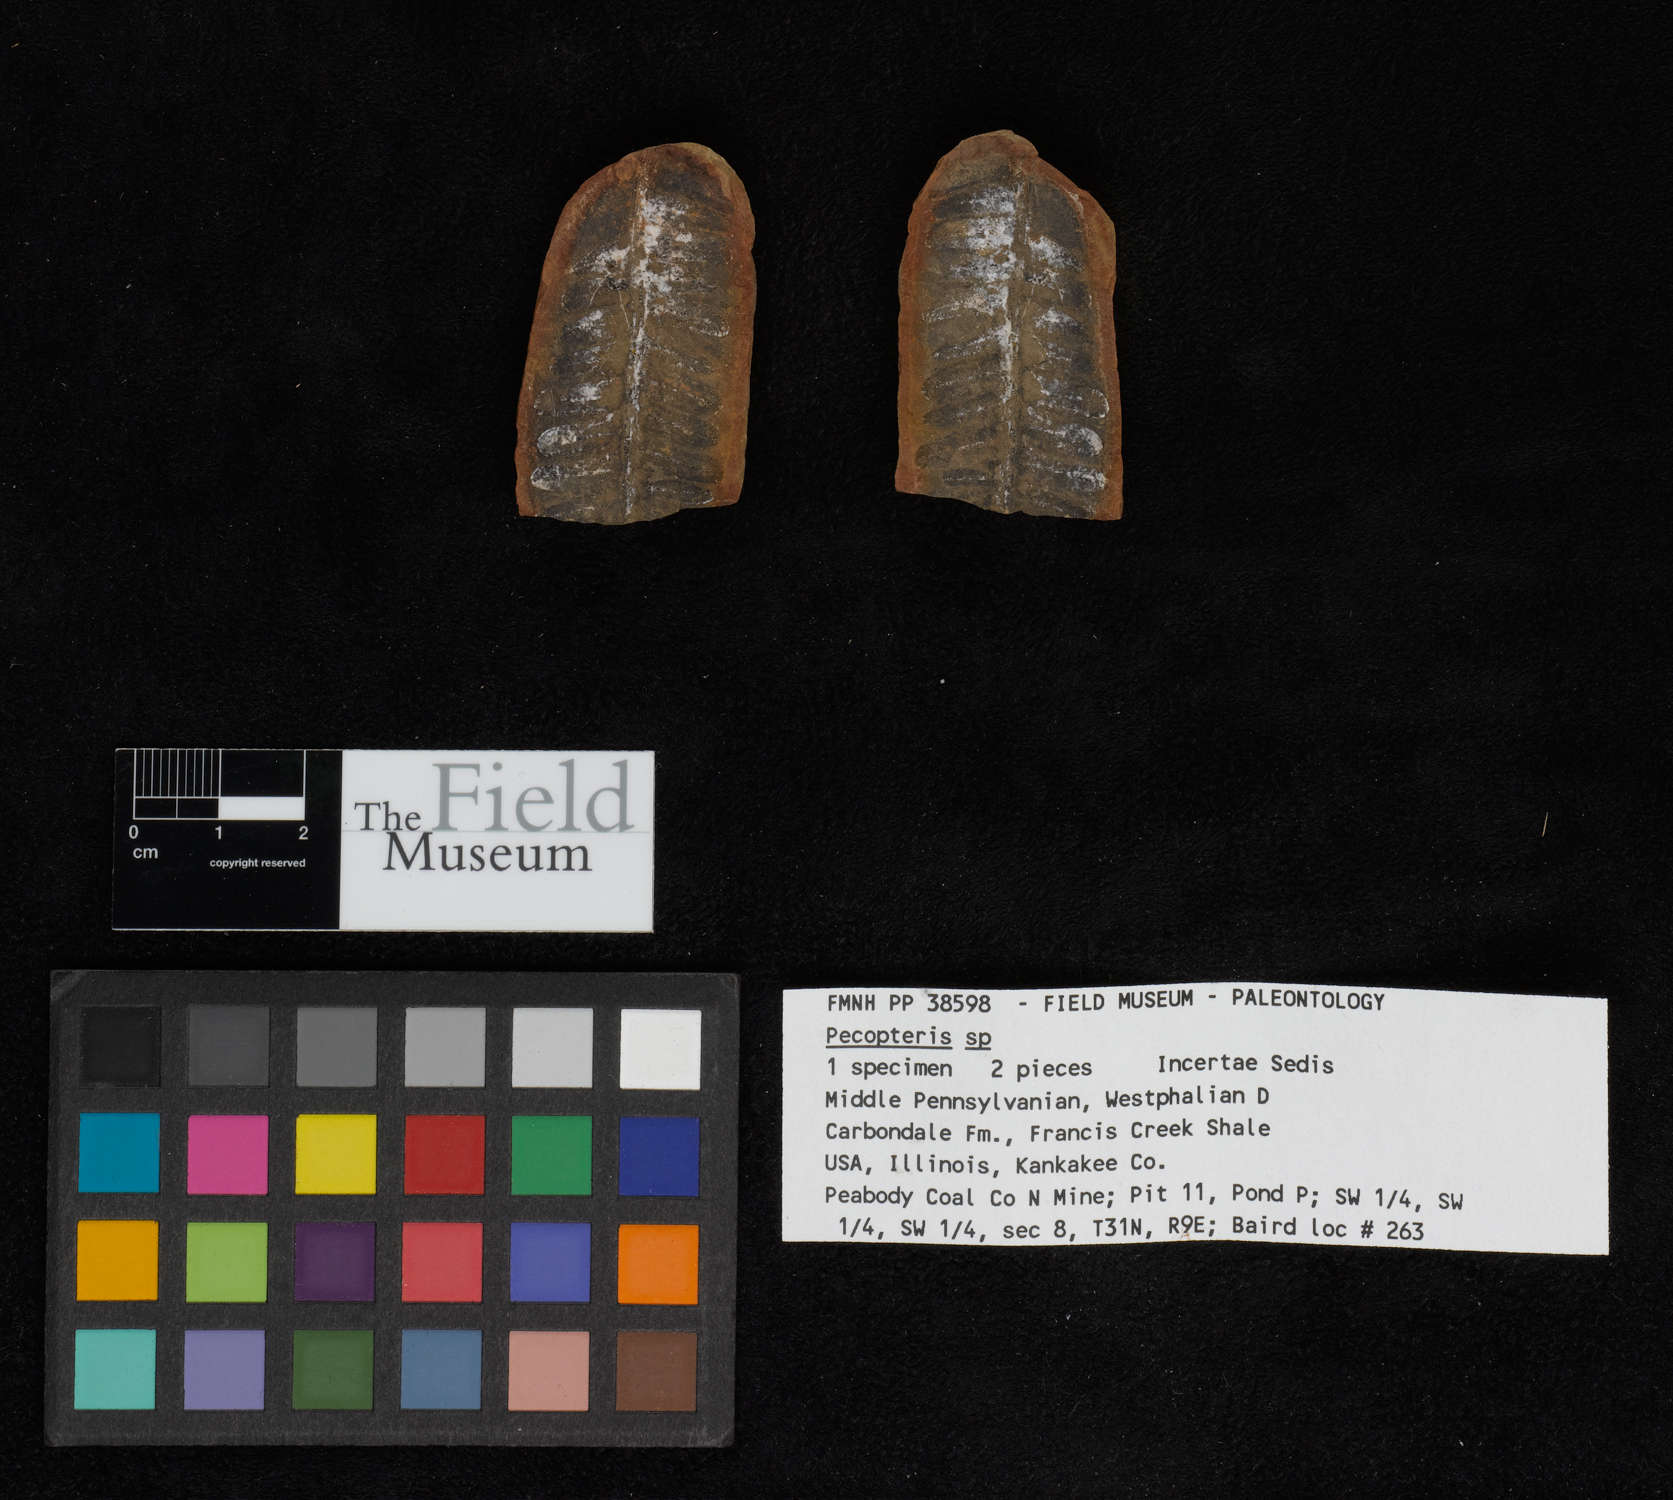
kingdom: Plantae
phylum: Tracheophyta
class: Polypodiopsida
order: Marattiales
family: Asterothecaceae
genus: Pecopteris
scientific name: Pecopteris
